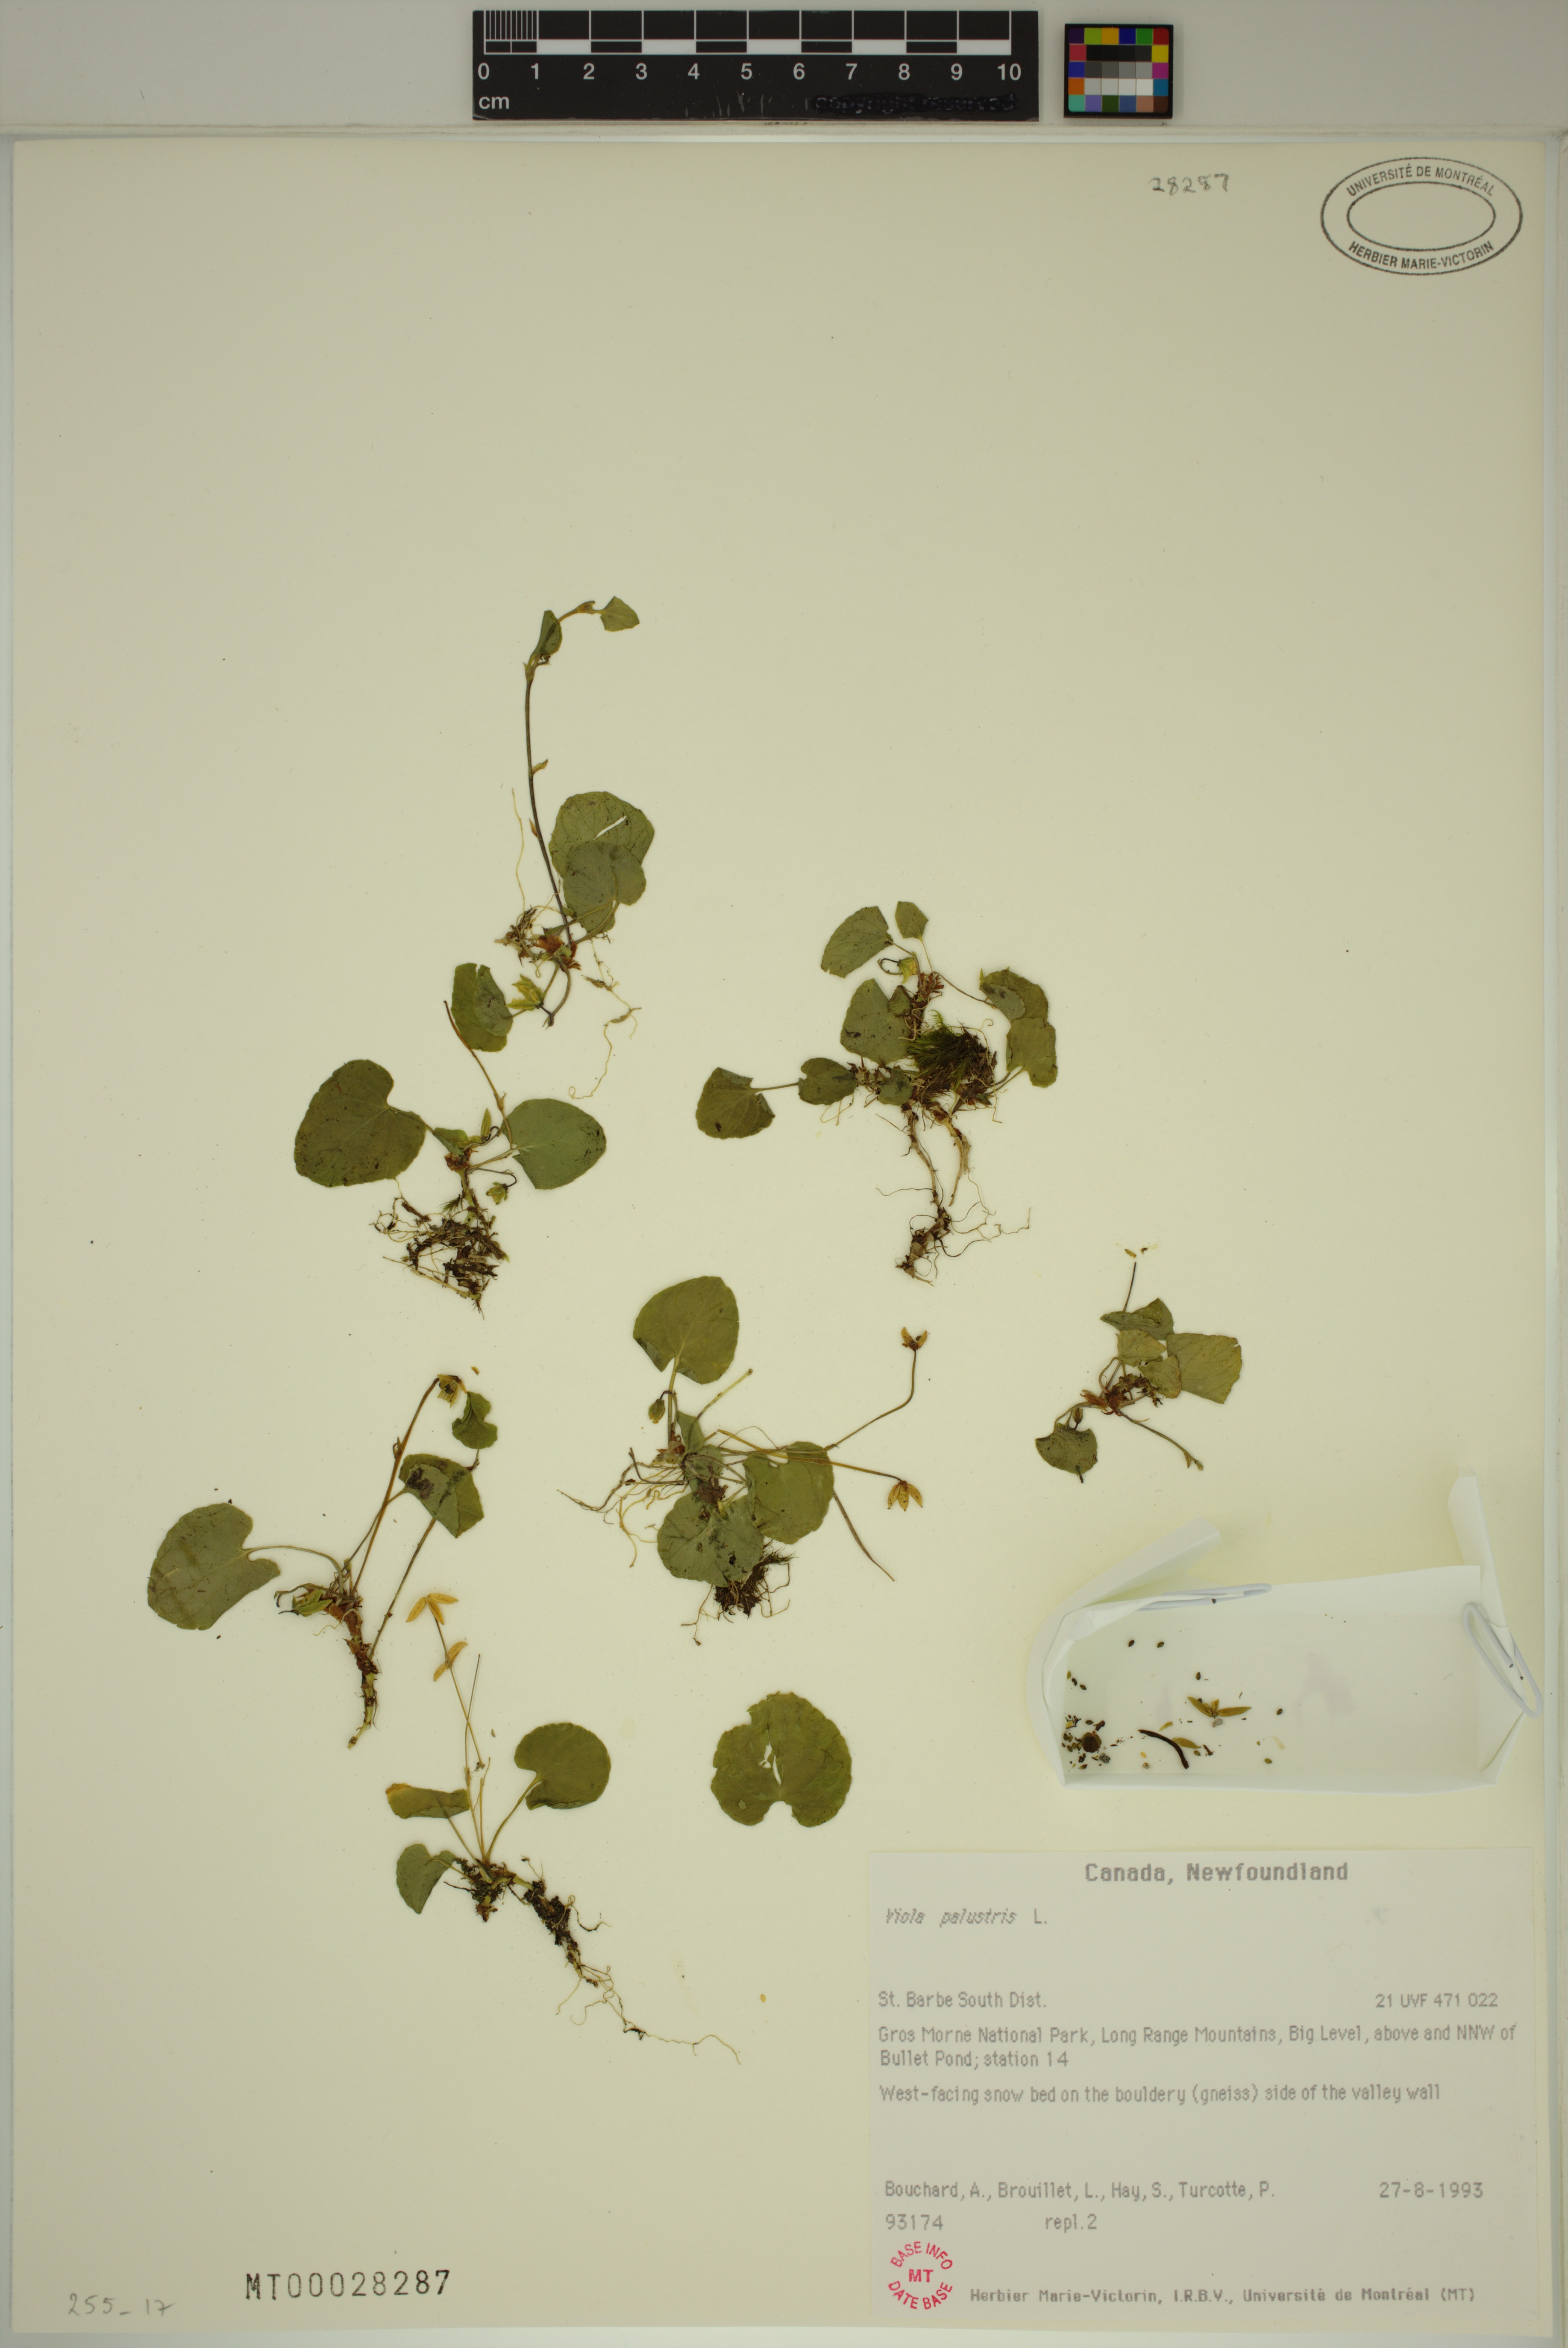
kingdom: Plantae
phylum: Tracheophyta
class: Magnoliopsida
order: Malpighiales
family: Violaceae
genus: Viola
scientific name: Viola palustris
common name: Marsh violet
